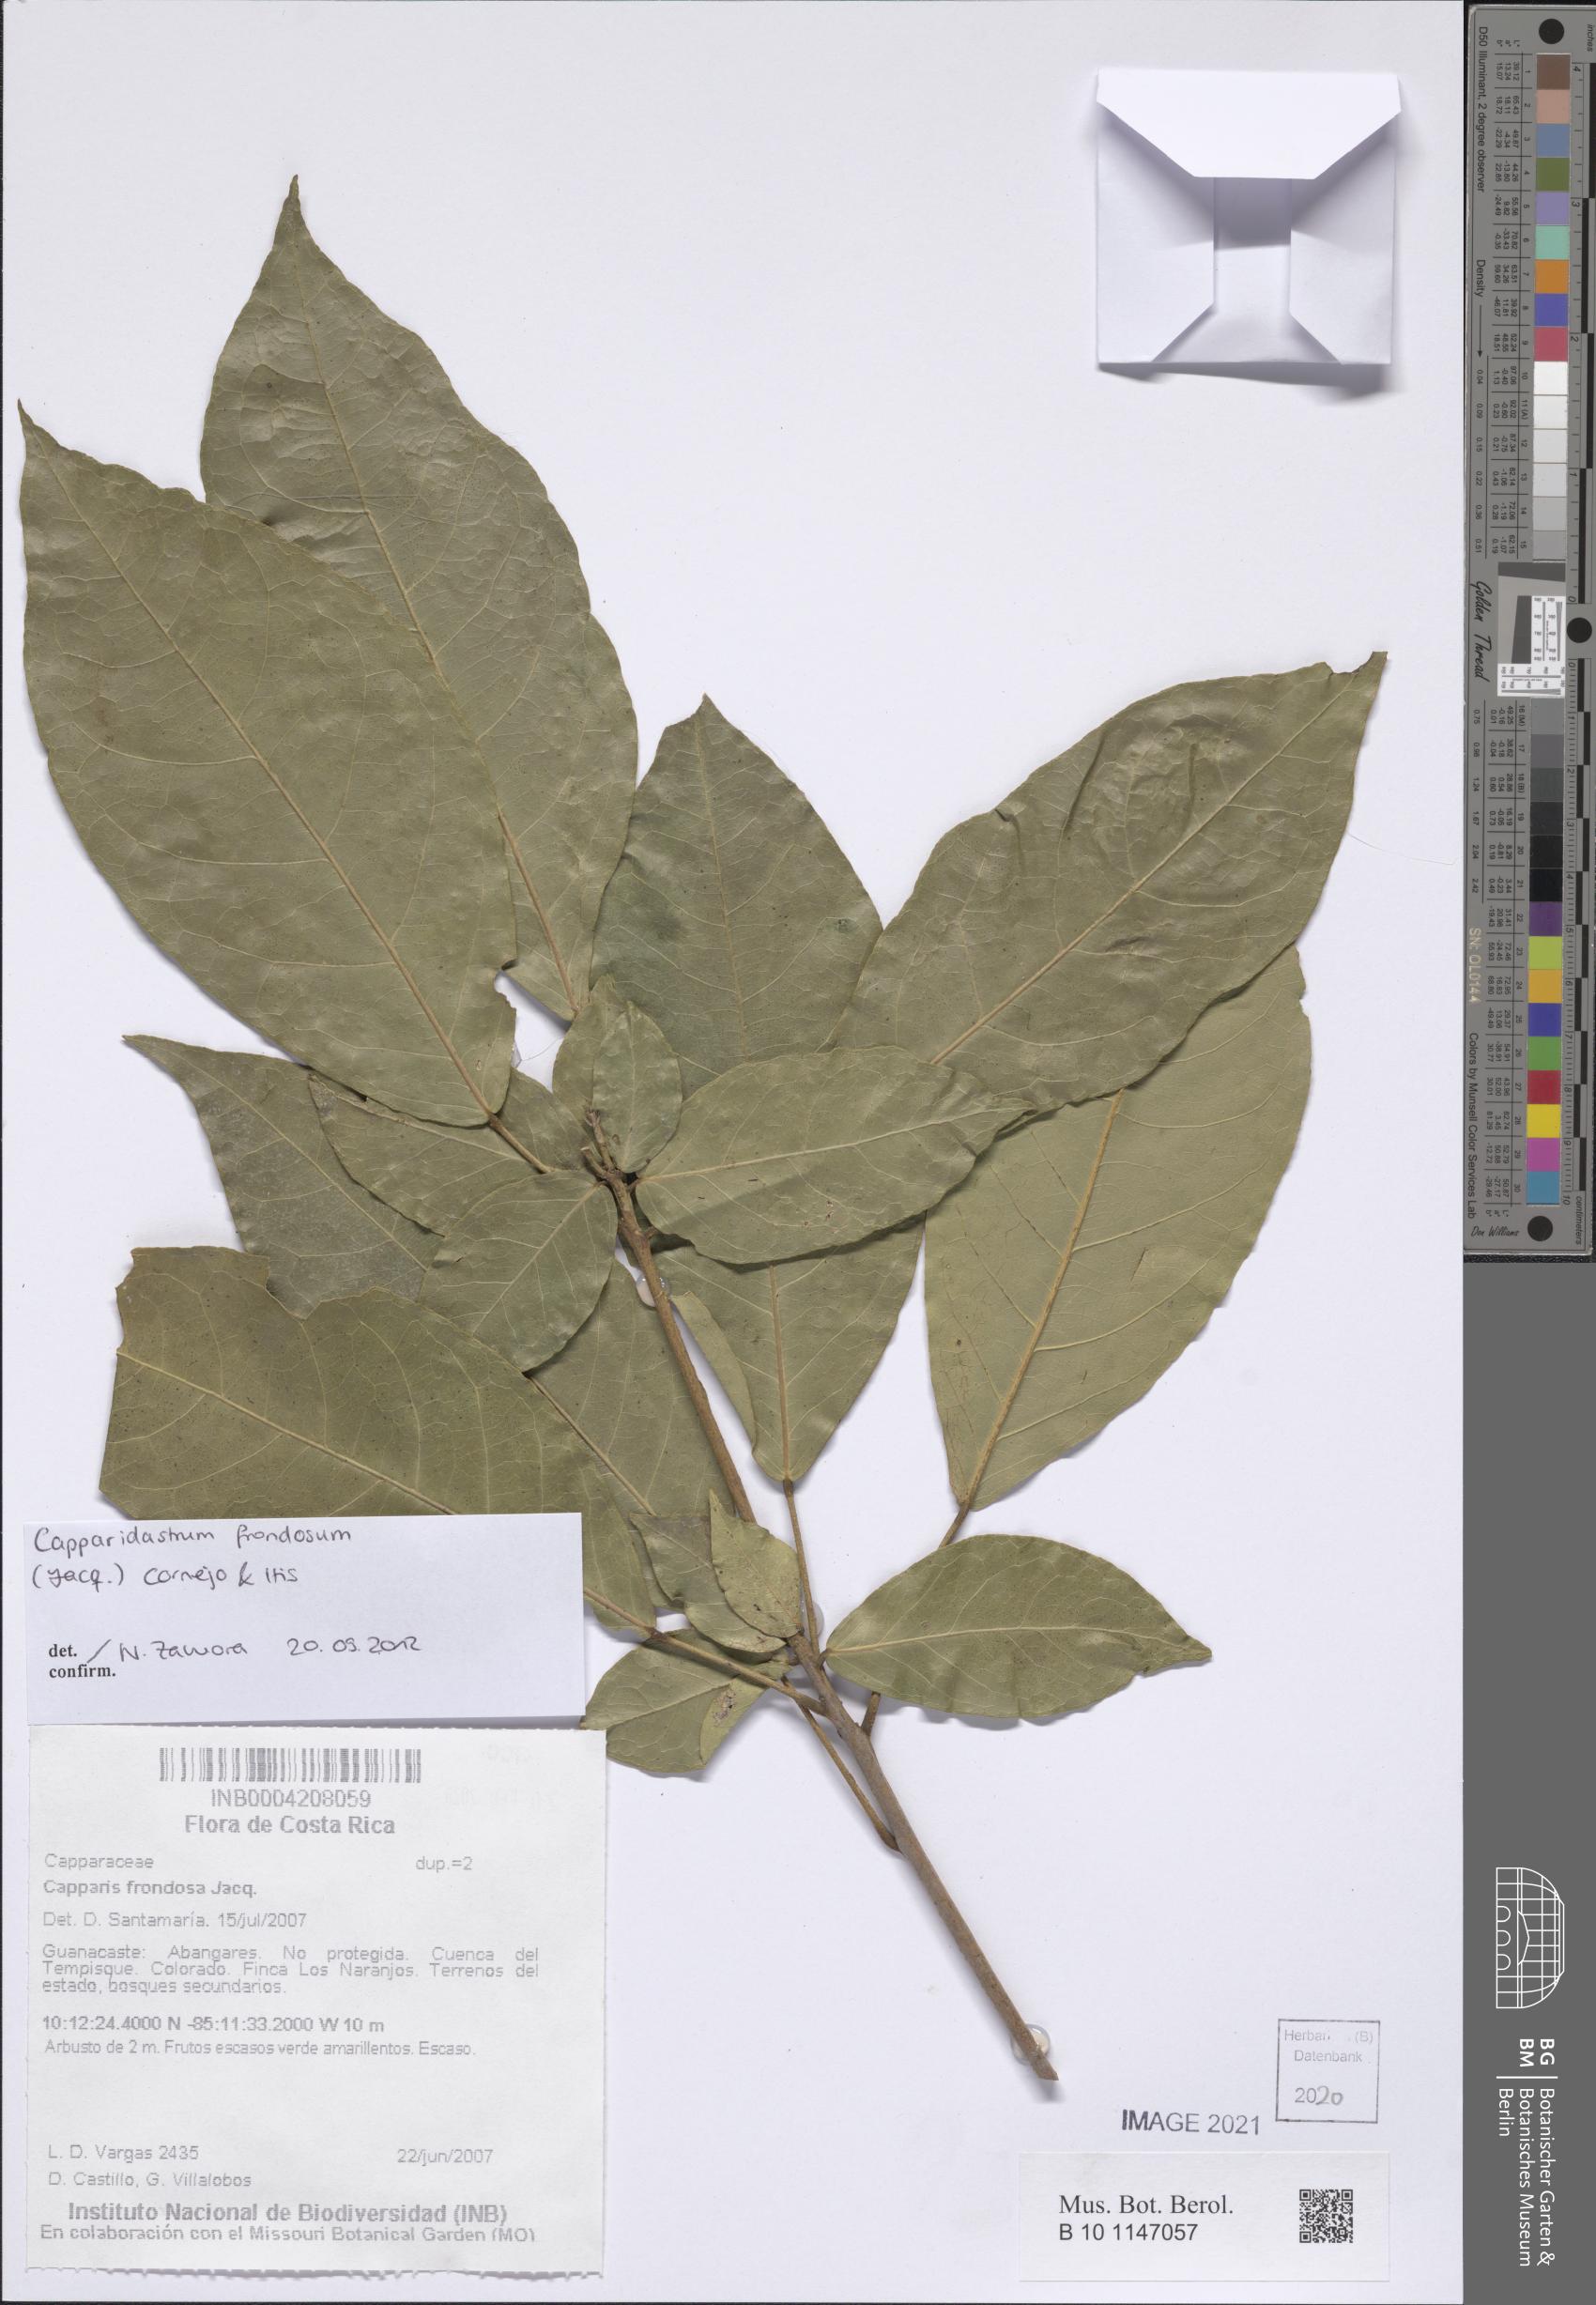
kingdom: Plantae
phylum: Tracheophyta
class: Magnoliopsida
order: Brassicales
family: Capparaceae
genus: Capparidastrum
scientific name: Capparidastrum frondosum
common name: Church blossom
